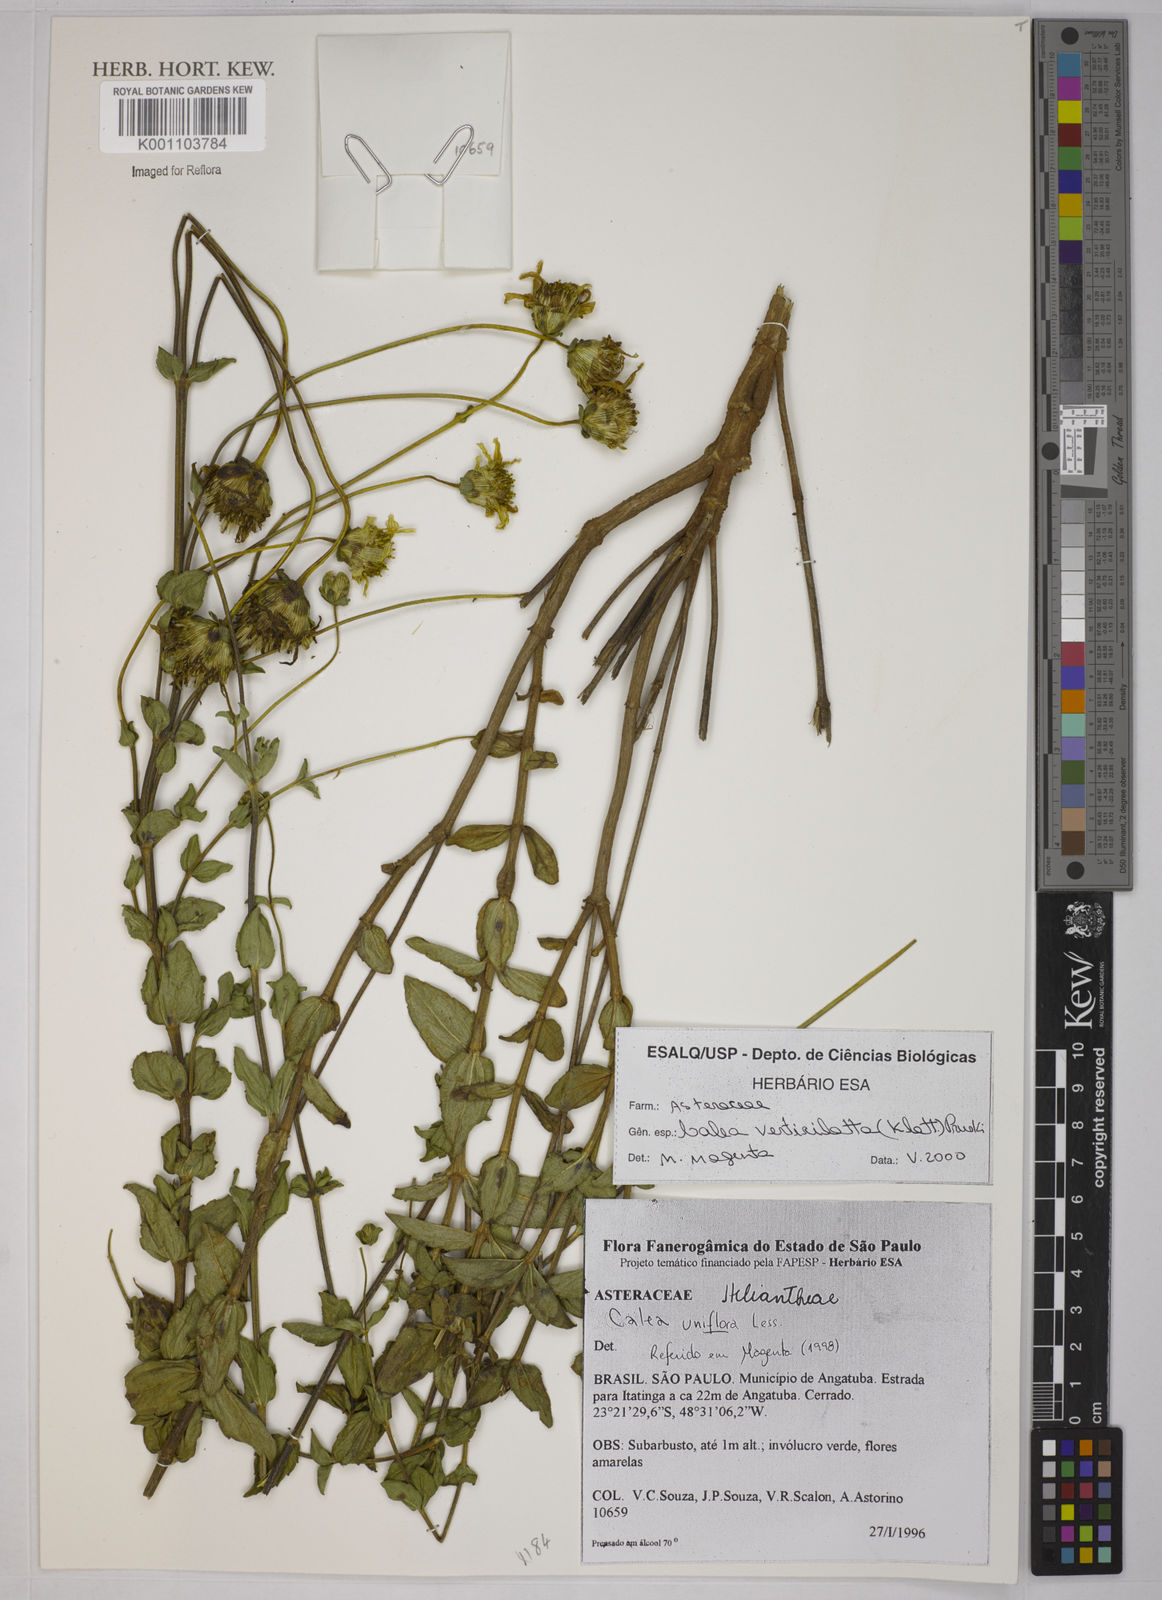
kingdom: Plantae
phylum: Tracheophyta
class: Magnoliopsida
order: Asterales
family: Asteraceae
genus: Calea
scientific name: Calea verticillata
